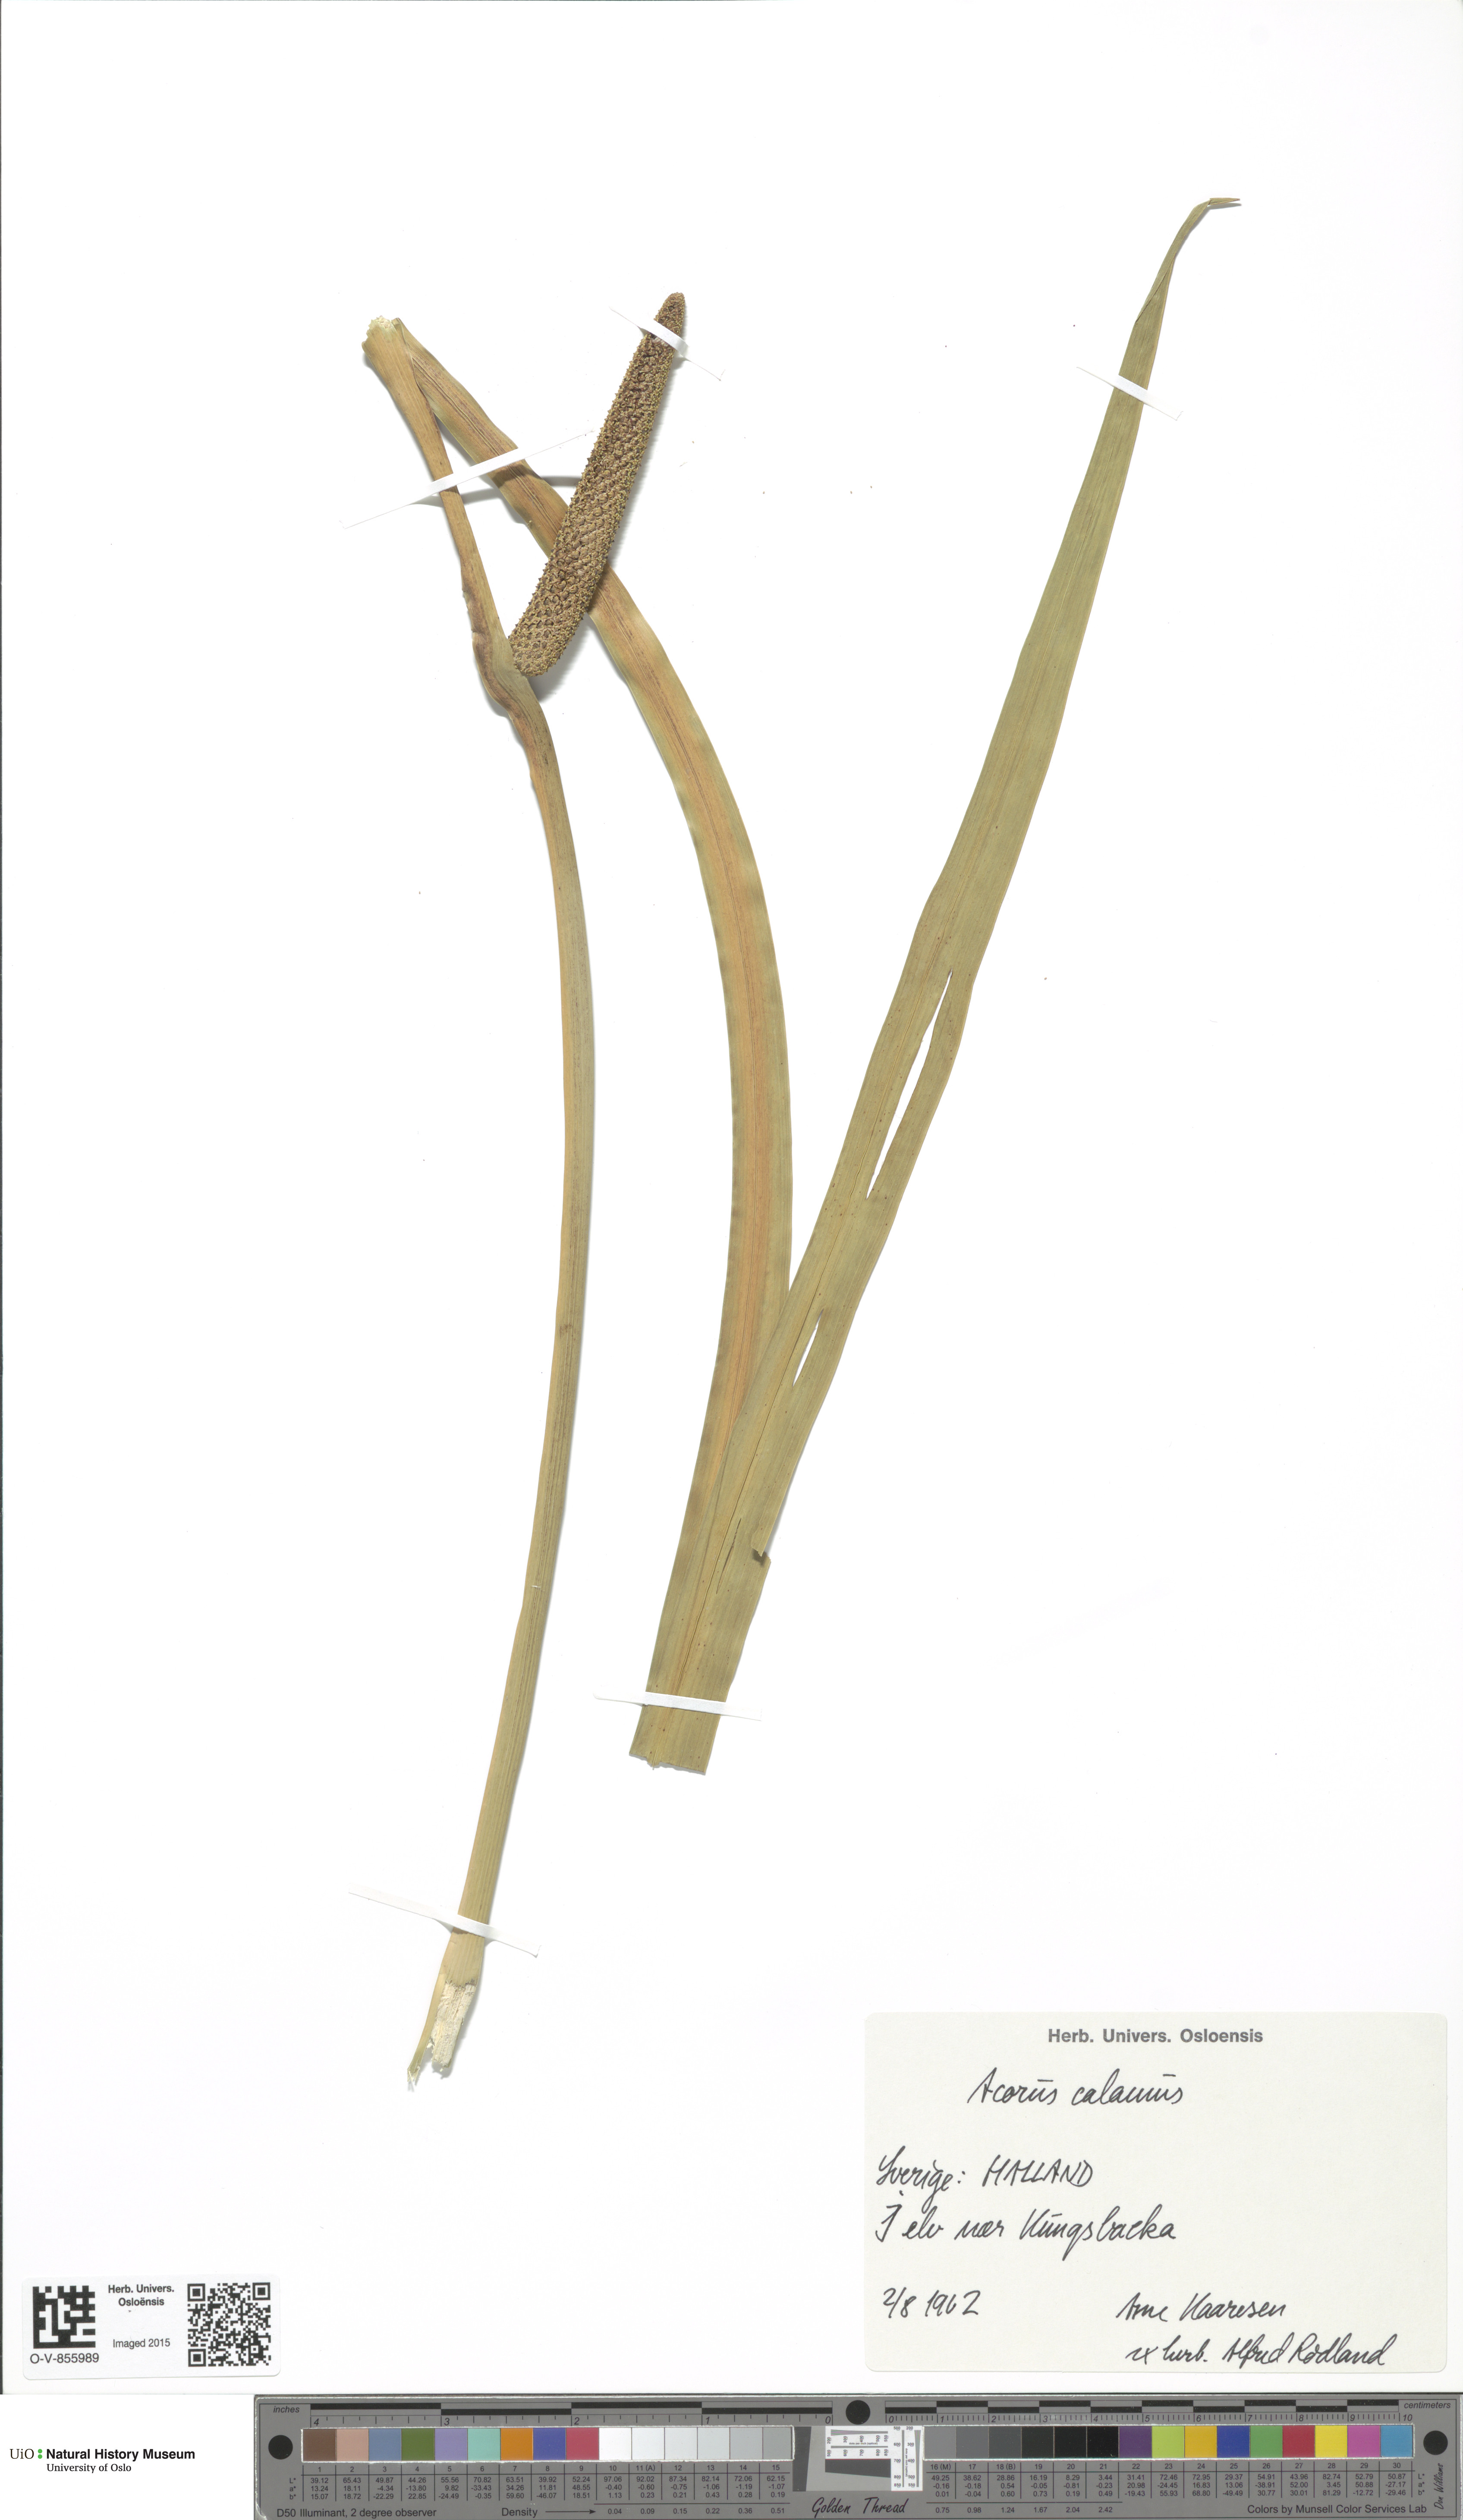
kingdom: Plantae
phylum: Tracheophyta
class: Liliopsida
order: Acorales
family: Acoraceae
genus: Acorus
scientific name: Acorus calamus
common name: Sweet-flag
